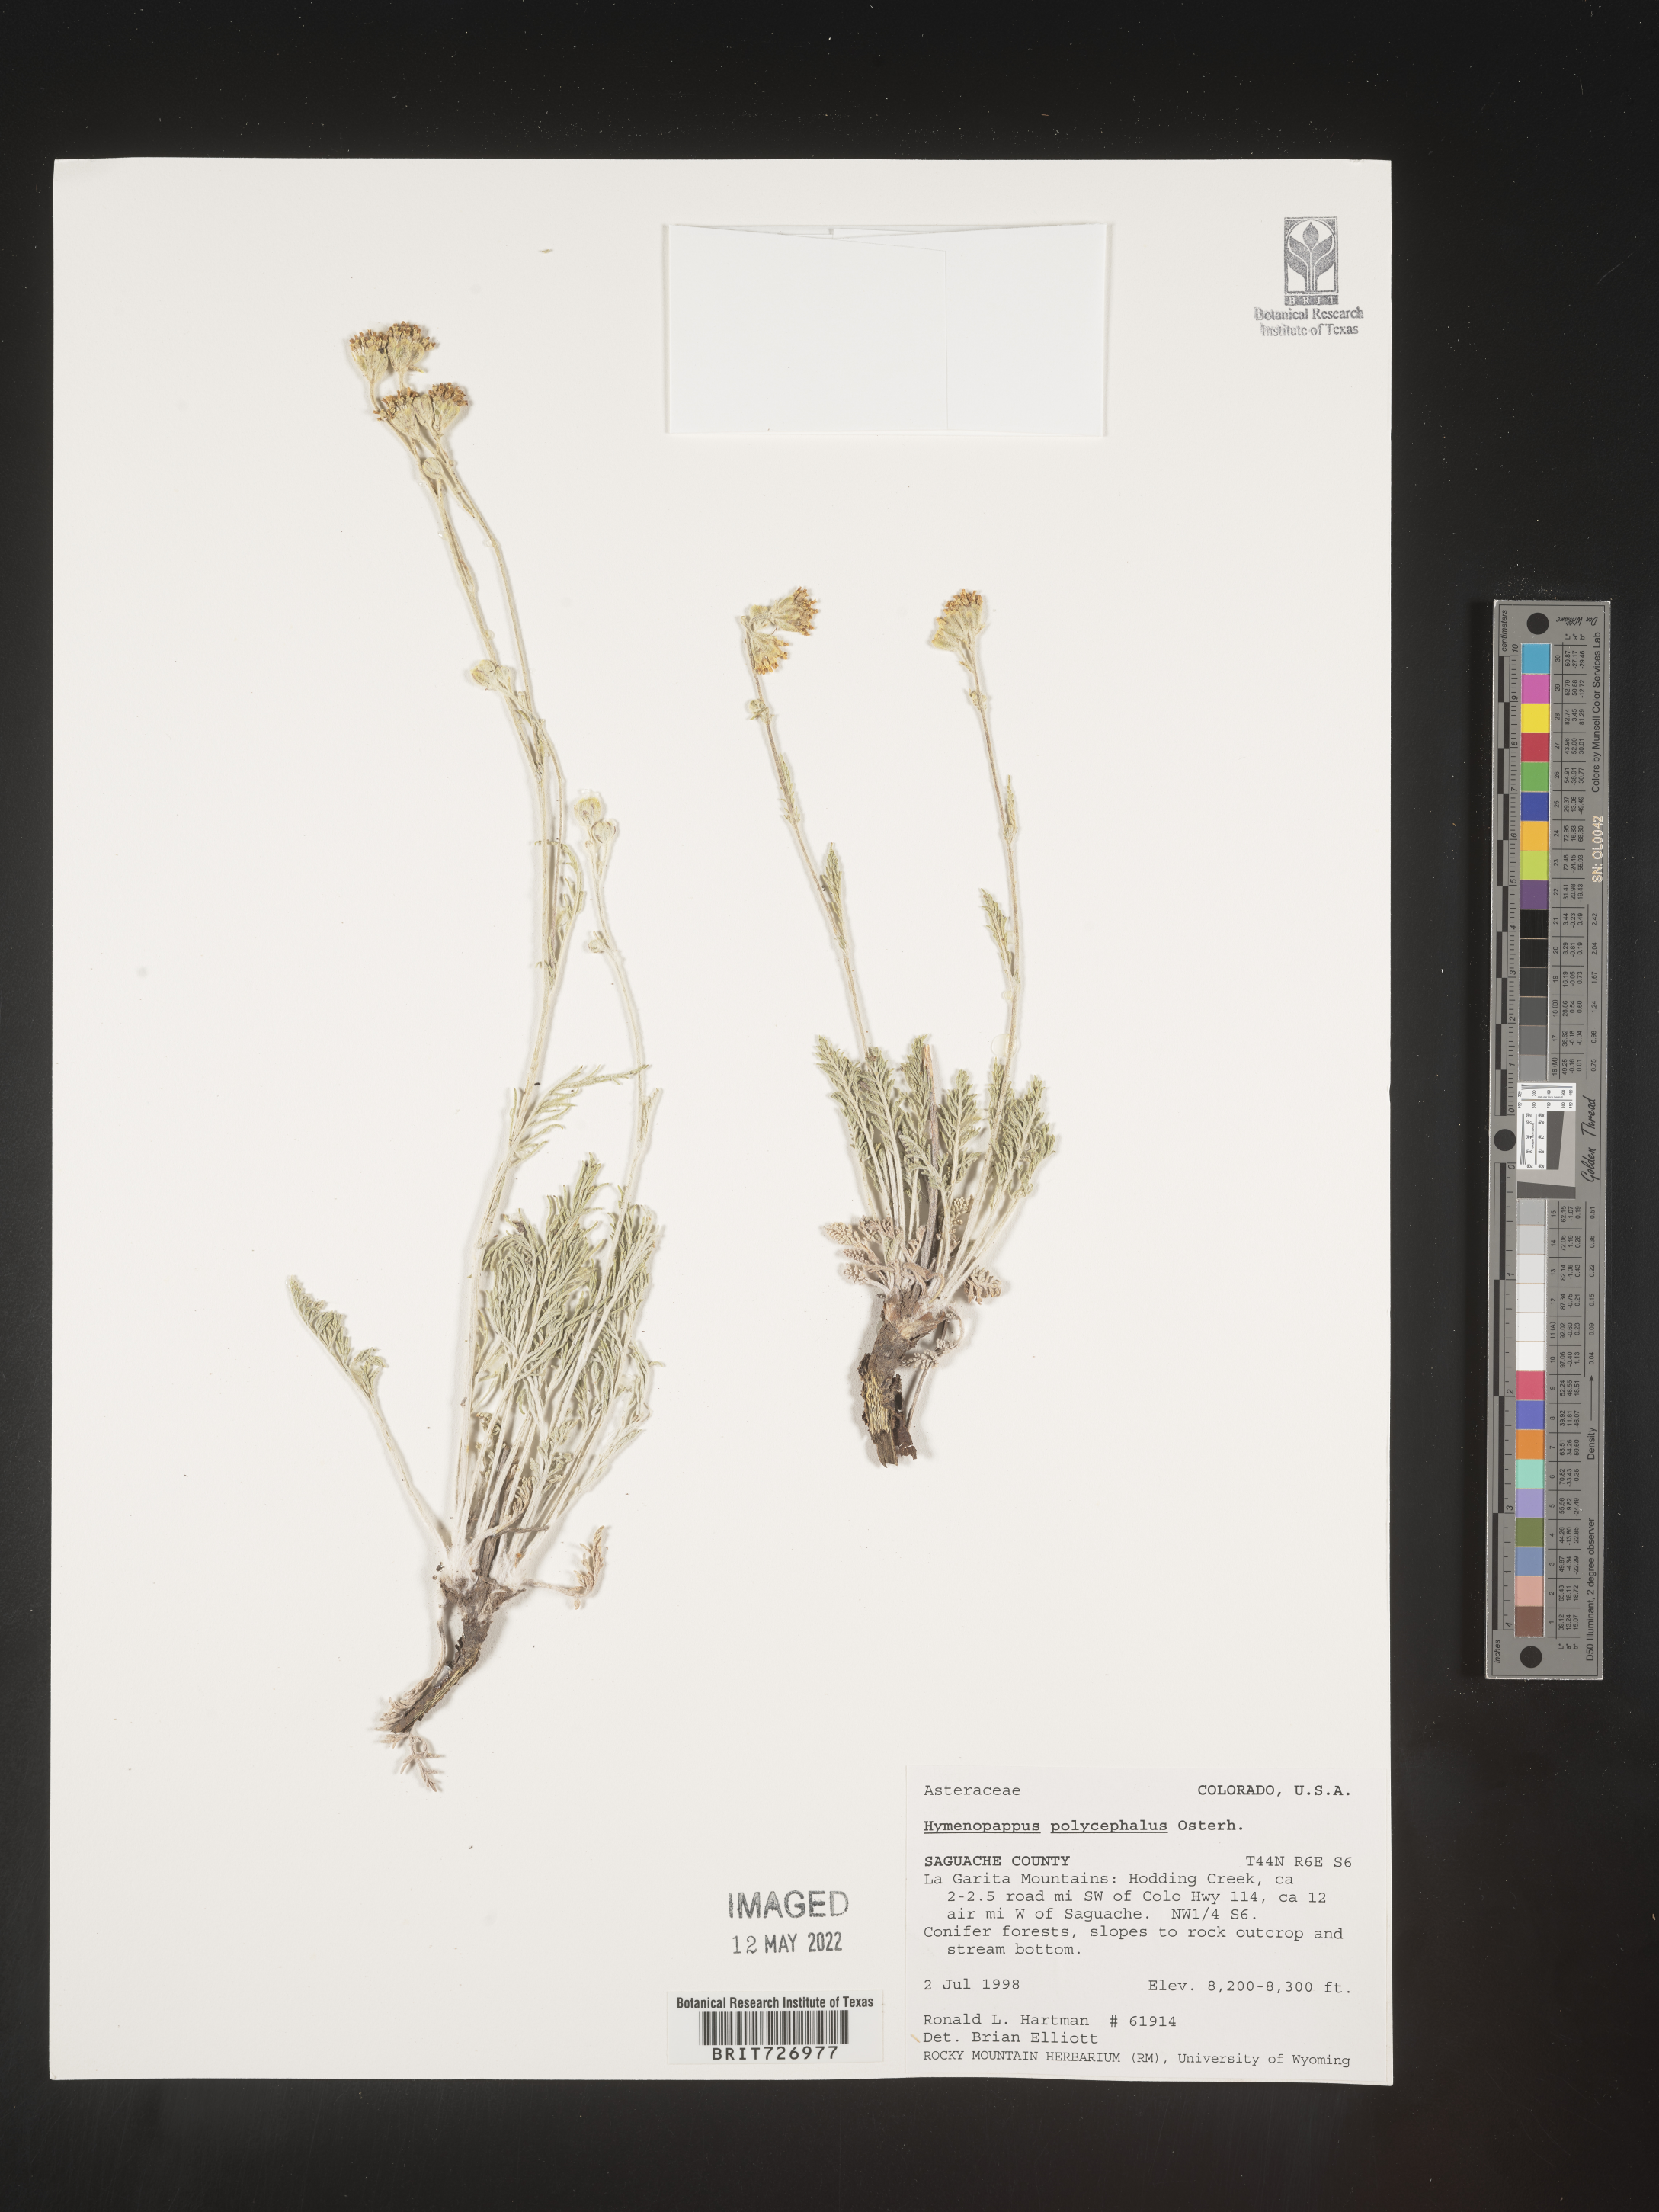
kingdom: Plantae
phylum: Tracheophyta
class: Magnoliopsida
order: Asterales
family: Asteraceae
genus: Hymenopappus
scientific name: Hymenopappus filifolius
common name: Columbia cutleaf
